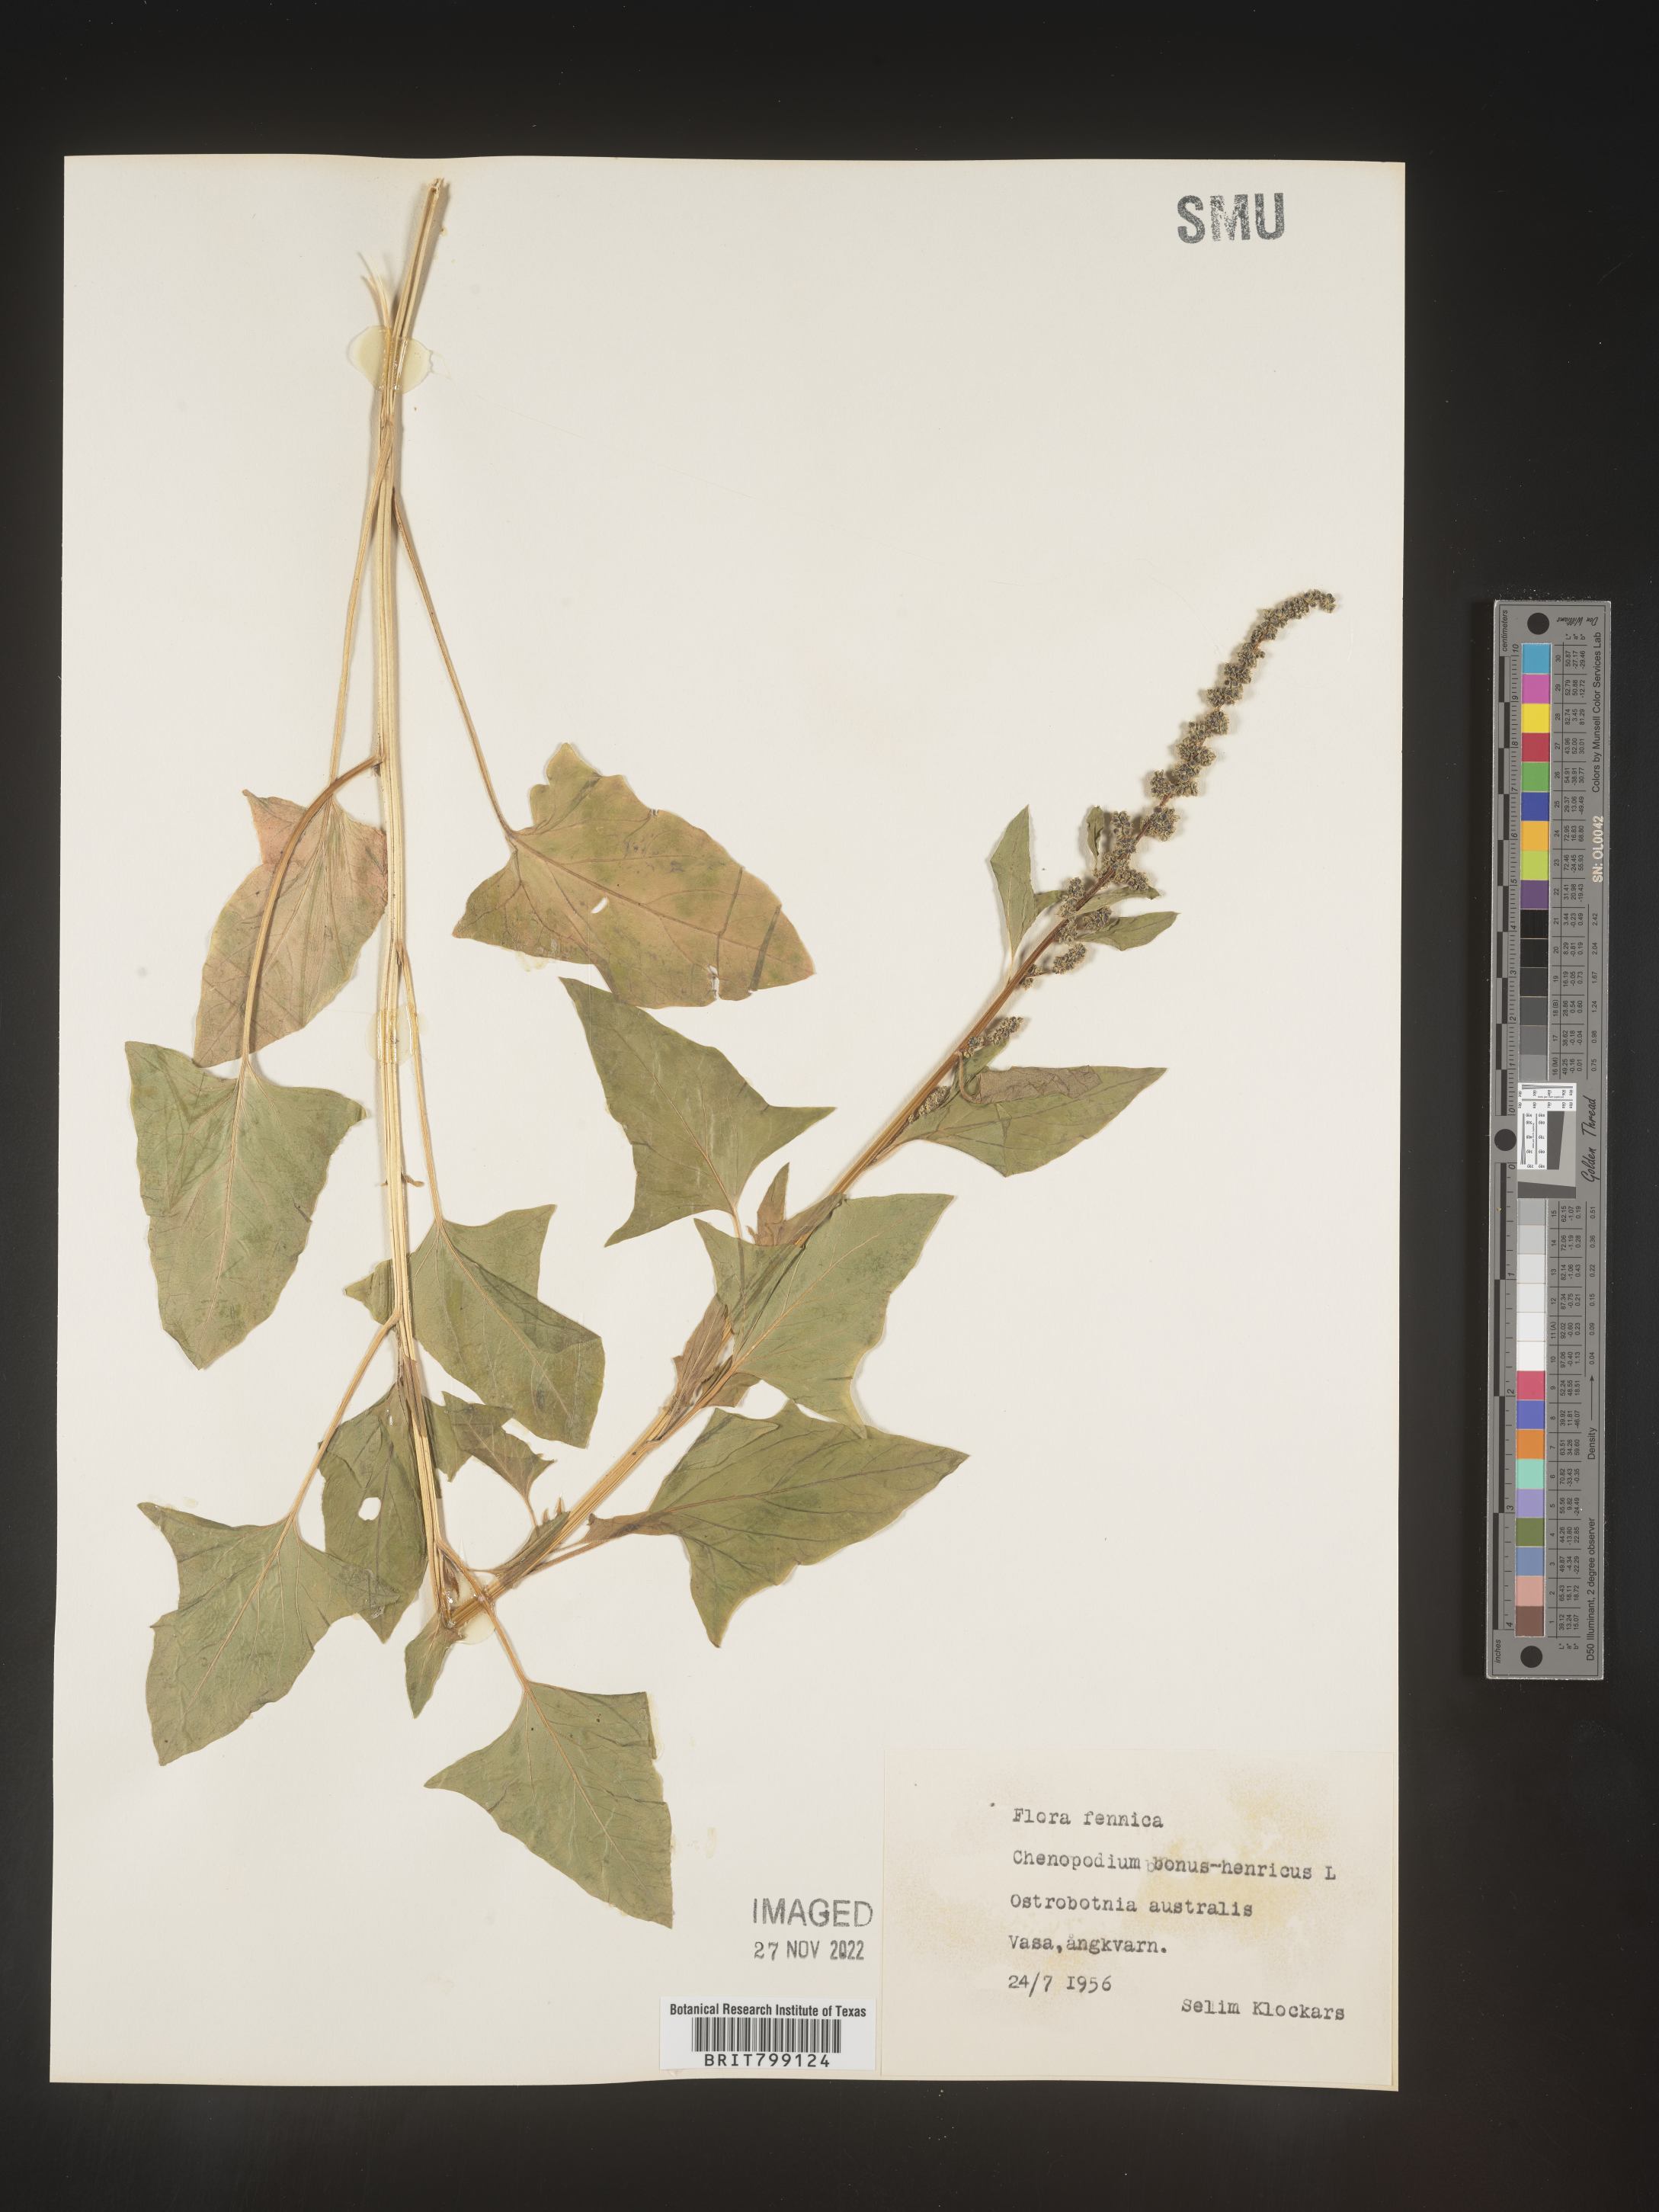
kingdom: Plantae
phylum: Tracheophyta
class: Magnoliopsida
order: Caryophyllales
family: Amaranthaceae
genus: Blitum
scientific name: Blitum bonus-henricus
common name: Good king henry
